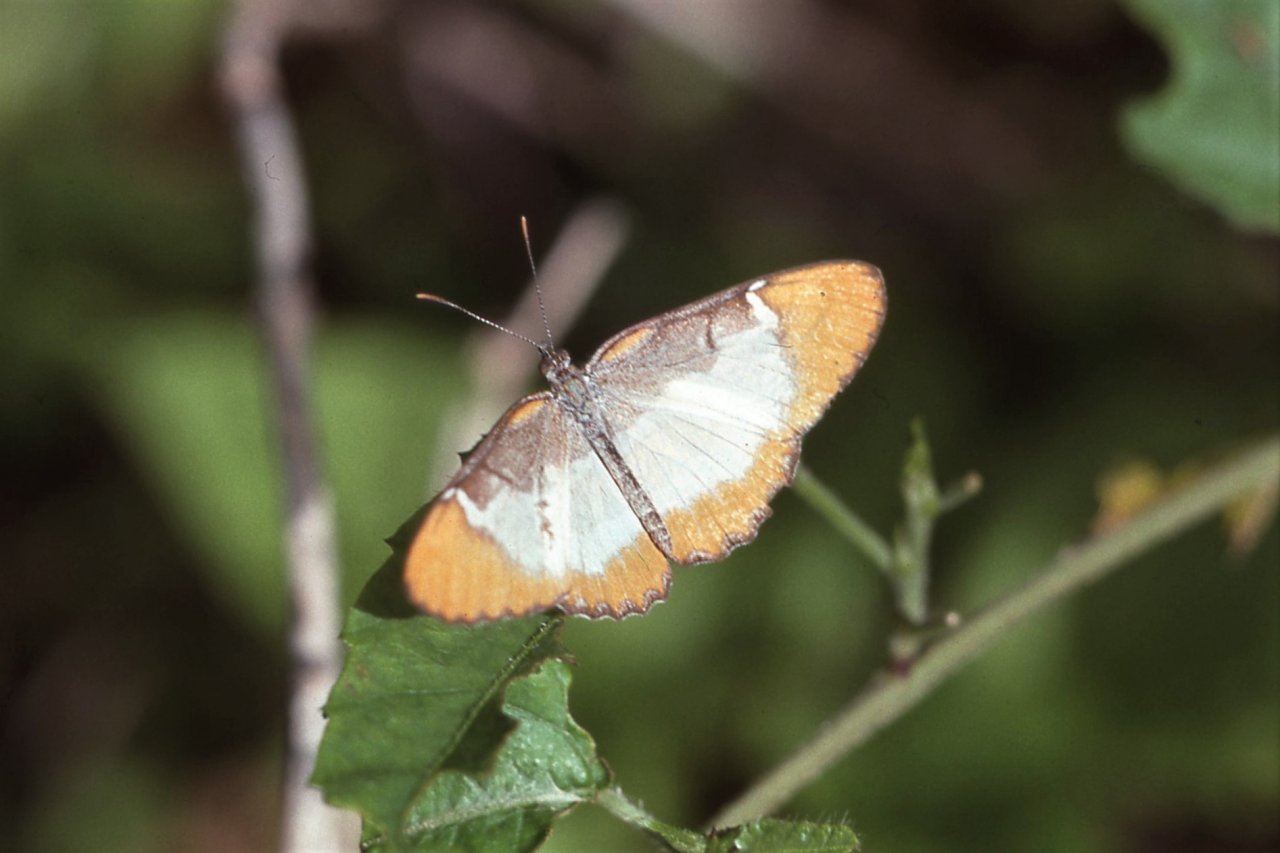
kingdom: Animalia
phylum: Arthropoda
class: Insecta
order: Lepidoptera
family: Nymphalidae
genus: Mestra
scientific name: Mestra dorcas
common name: Jamaican Mestra
